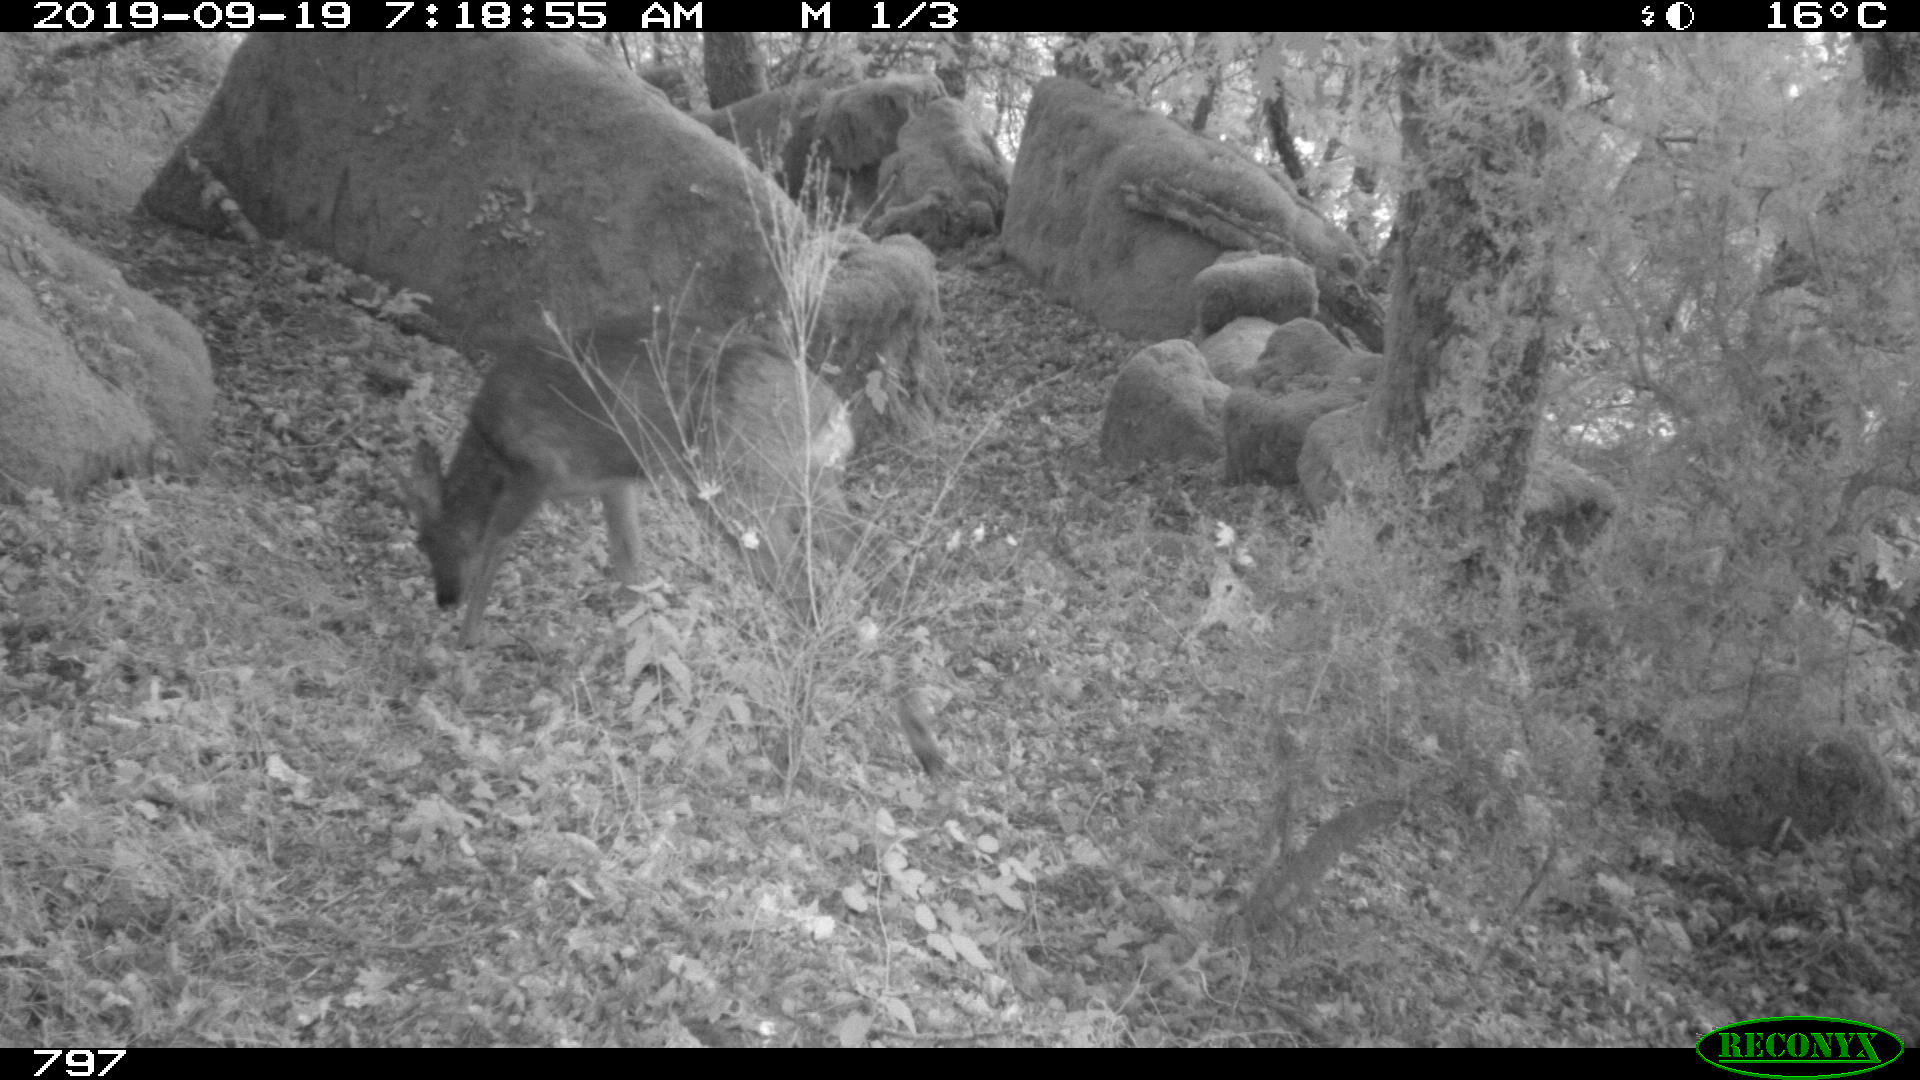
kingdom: Animalia
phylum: Chordata
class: Mammalia
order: Artiodactyla
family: Cervidae
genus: Capreolus
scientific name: Capreolus capreolus
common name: Western roe deer
